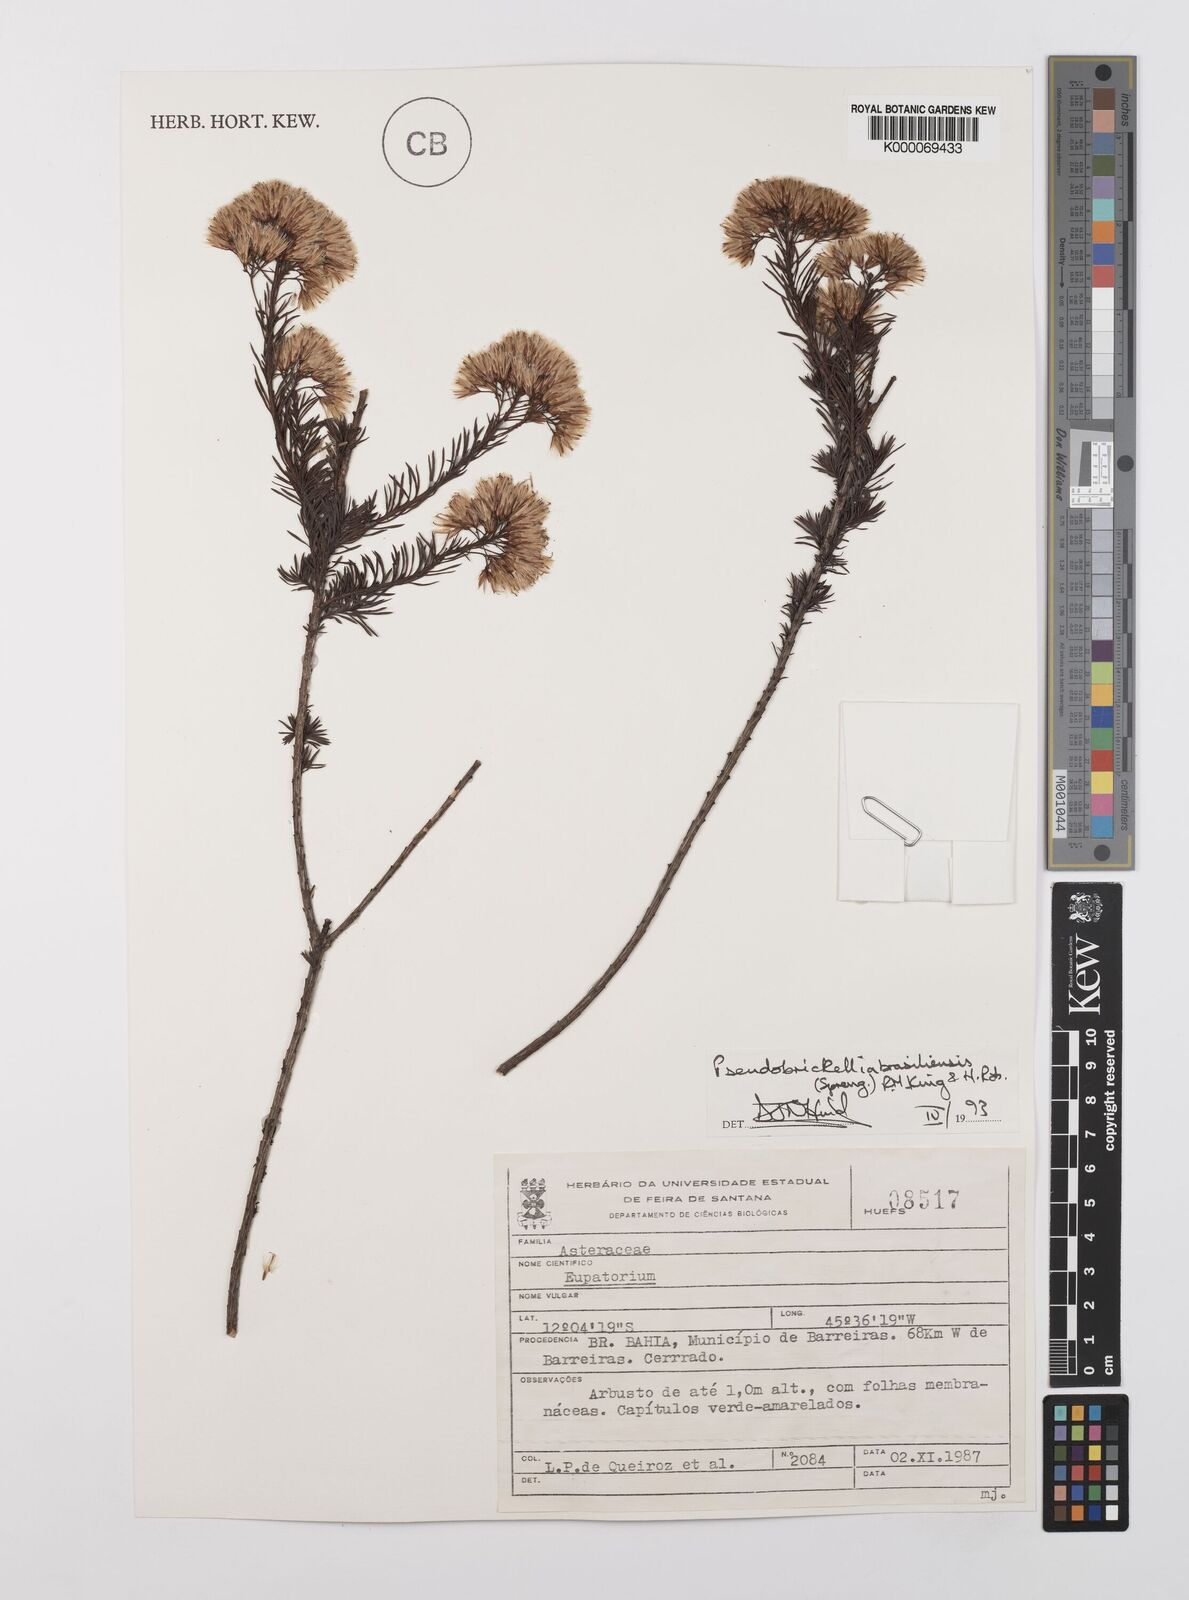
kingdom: Plantae
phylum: Tracheophyta
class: Magnoliopsida
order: Asterales
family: Asteraceae
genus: Pseudobrickellia
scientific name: Pseudobrickellia brasiliensis
